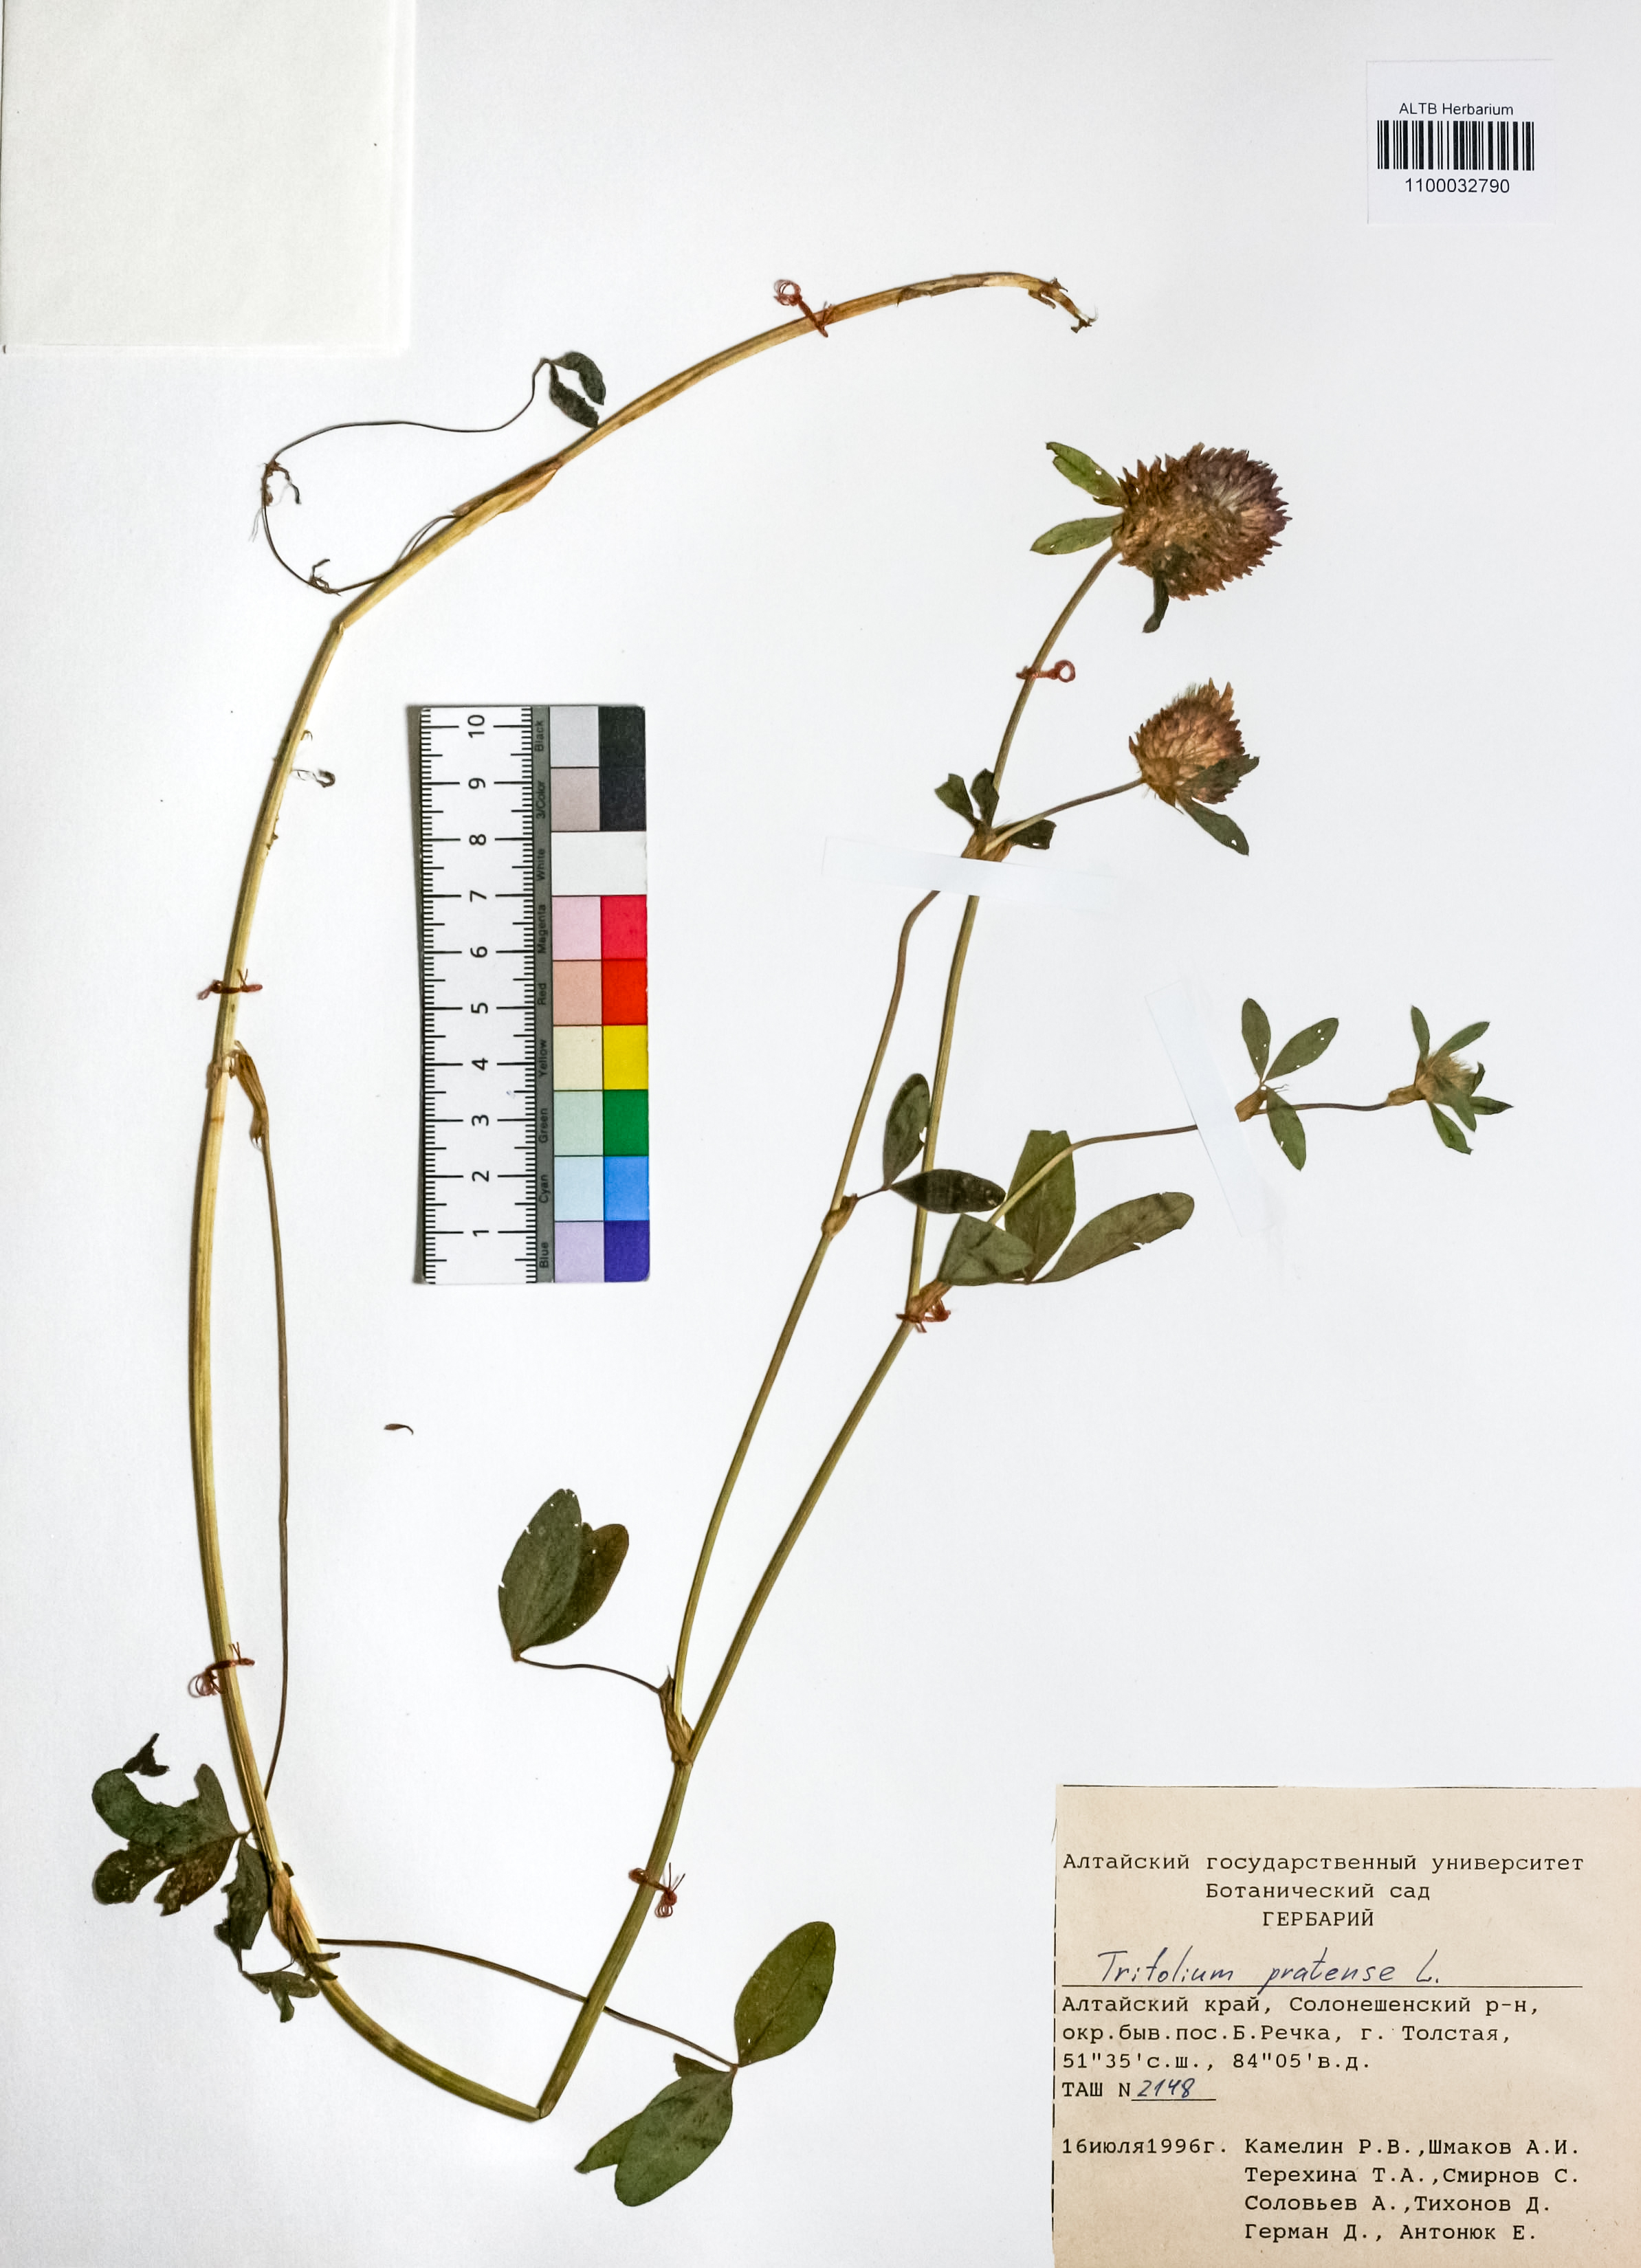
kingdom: Plantae
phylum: Tracheophyta
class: Magnoliopsida
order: Fabales
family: Fabaceae
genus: Trifolium
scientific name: Trifolium pratense
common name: Red clover
